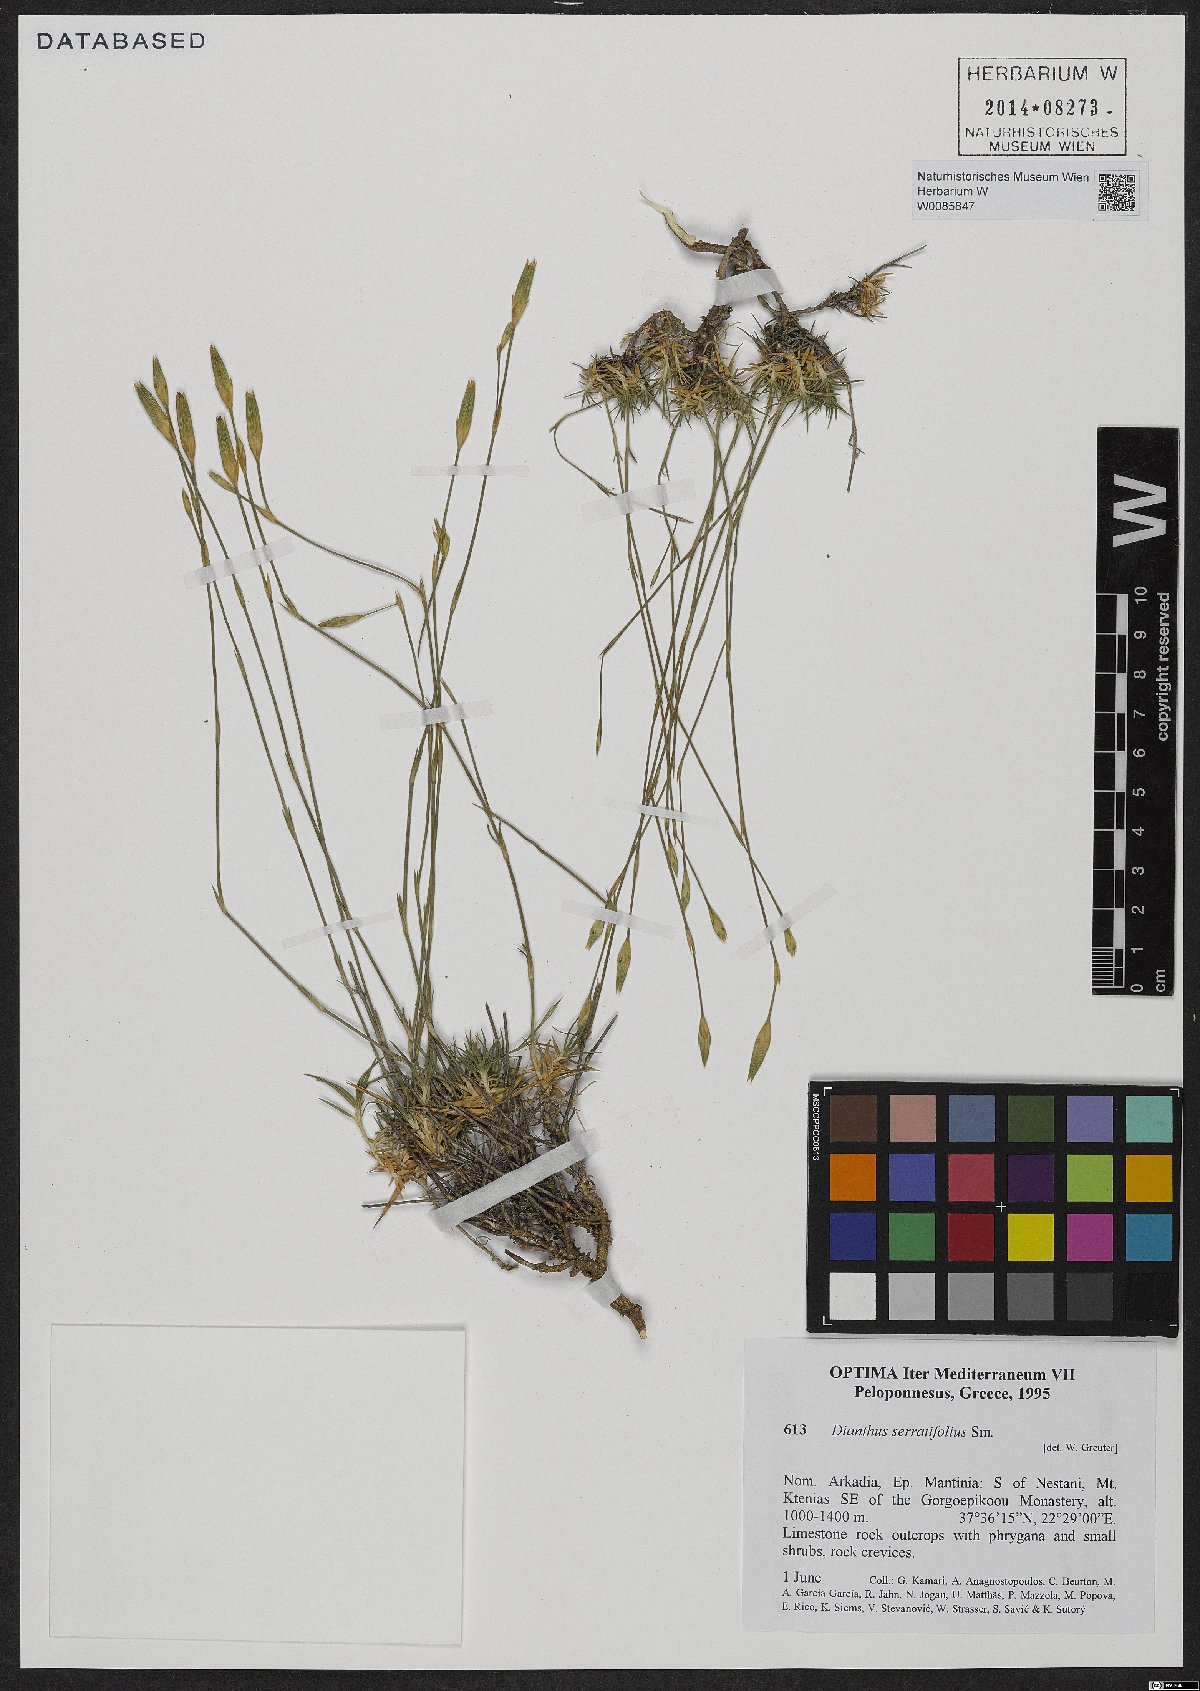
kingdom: Plantae
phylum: Tracheophyta
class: Magnoliopsida
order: Caryophyllales
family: Caryophyllaceae
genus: Dianthus
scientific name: Dianthus serratifolius
